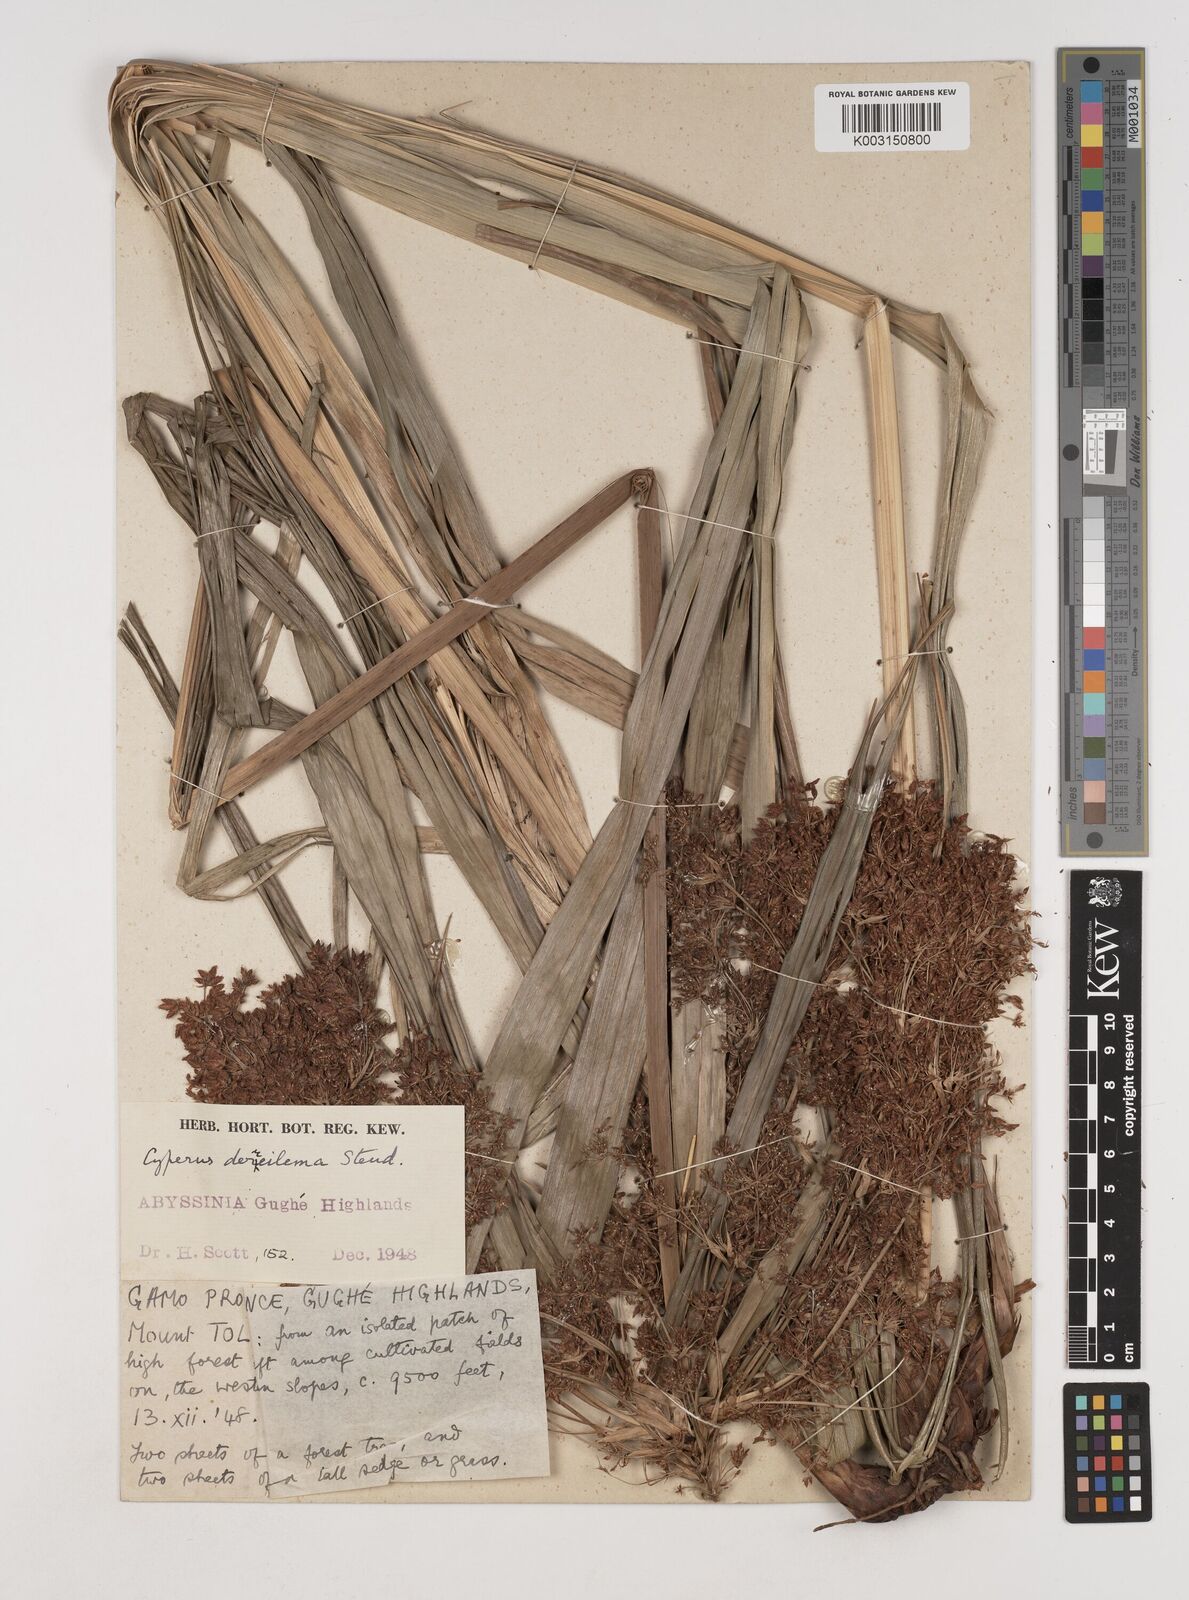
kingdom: Plantae
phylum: Tracheophyta
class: Liliopsida
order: Poales
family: Cyperaceae
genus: Cyperus
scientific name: Cyperus derreilema
